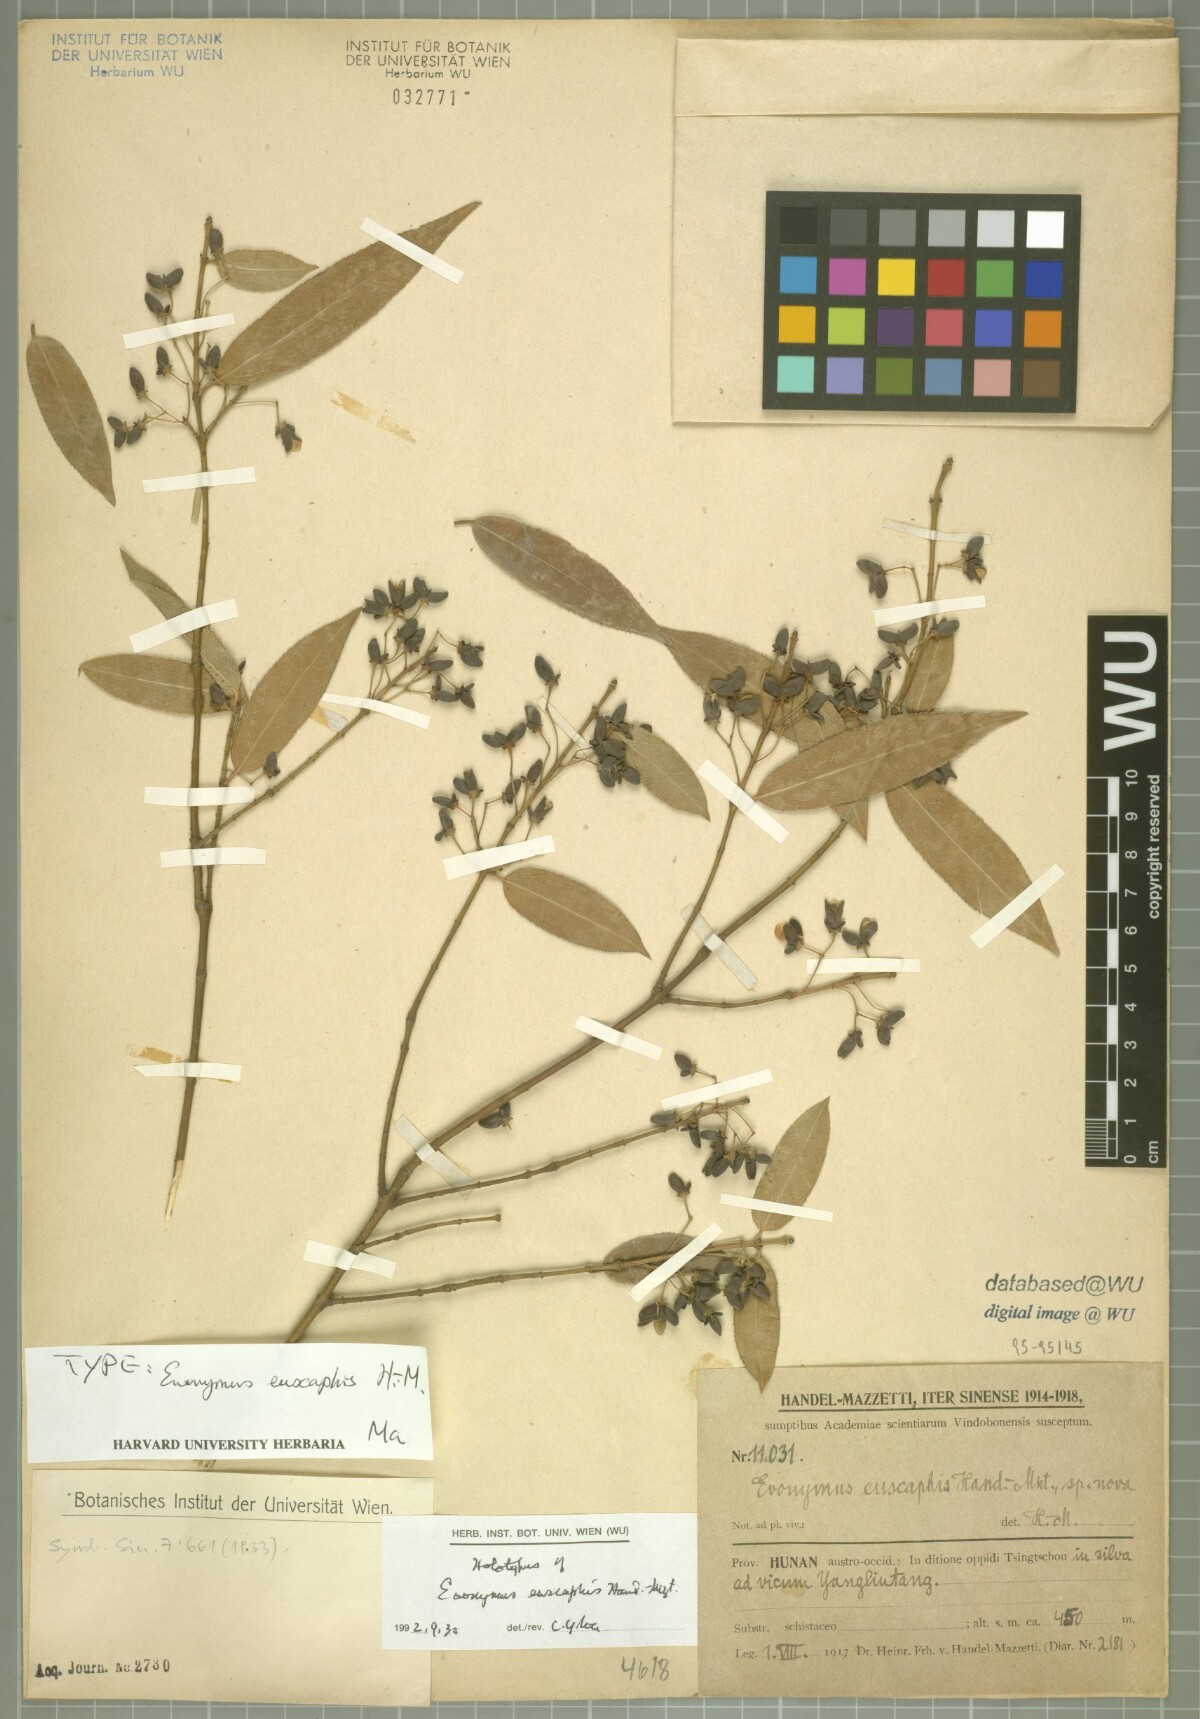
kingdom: Plantae
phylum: Tracheophyta
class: Magnoliopsida
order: Celastrales
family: Celastraceae
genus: Euonymus
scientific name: Euonymus euscaphis
